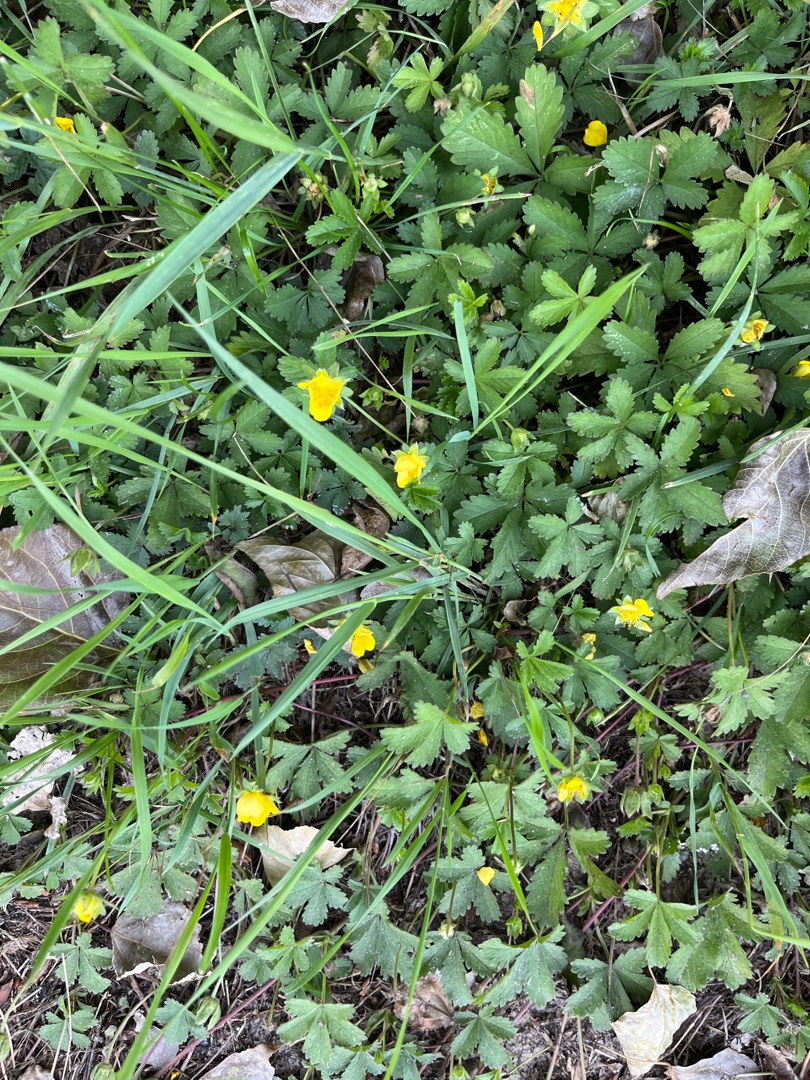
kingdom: Plantae
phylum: Tracheophyta
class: Magnoliopsida
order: Rosales
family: Rosaceae
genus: Potentilla
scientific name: Potentilla reptans
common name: Krybende potentil
